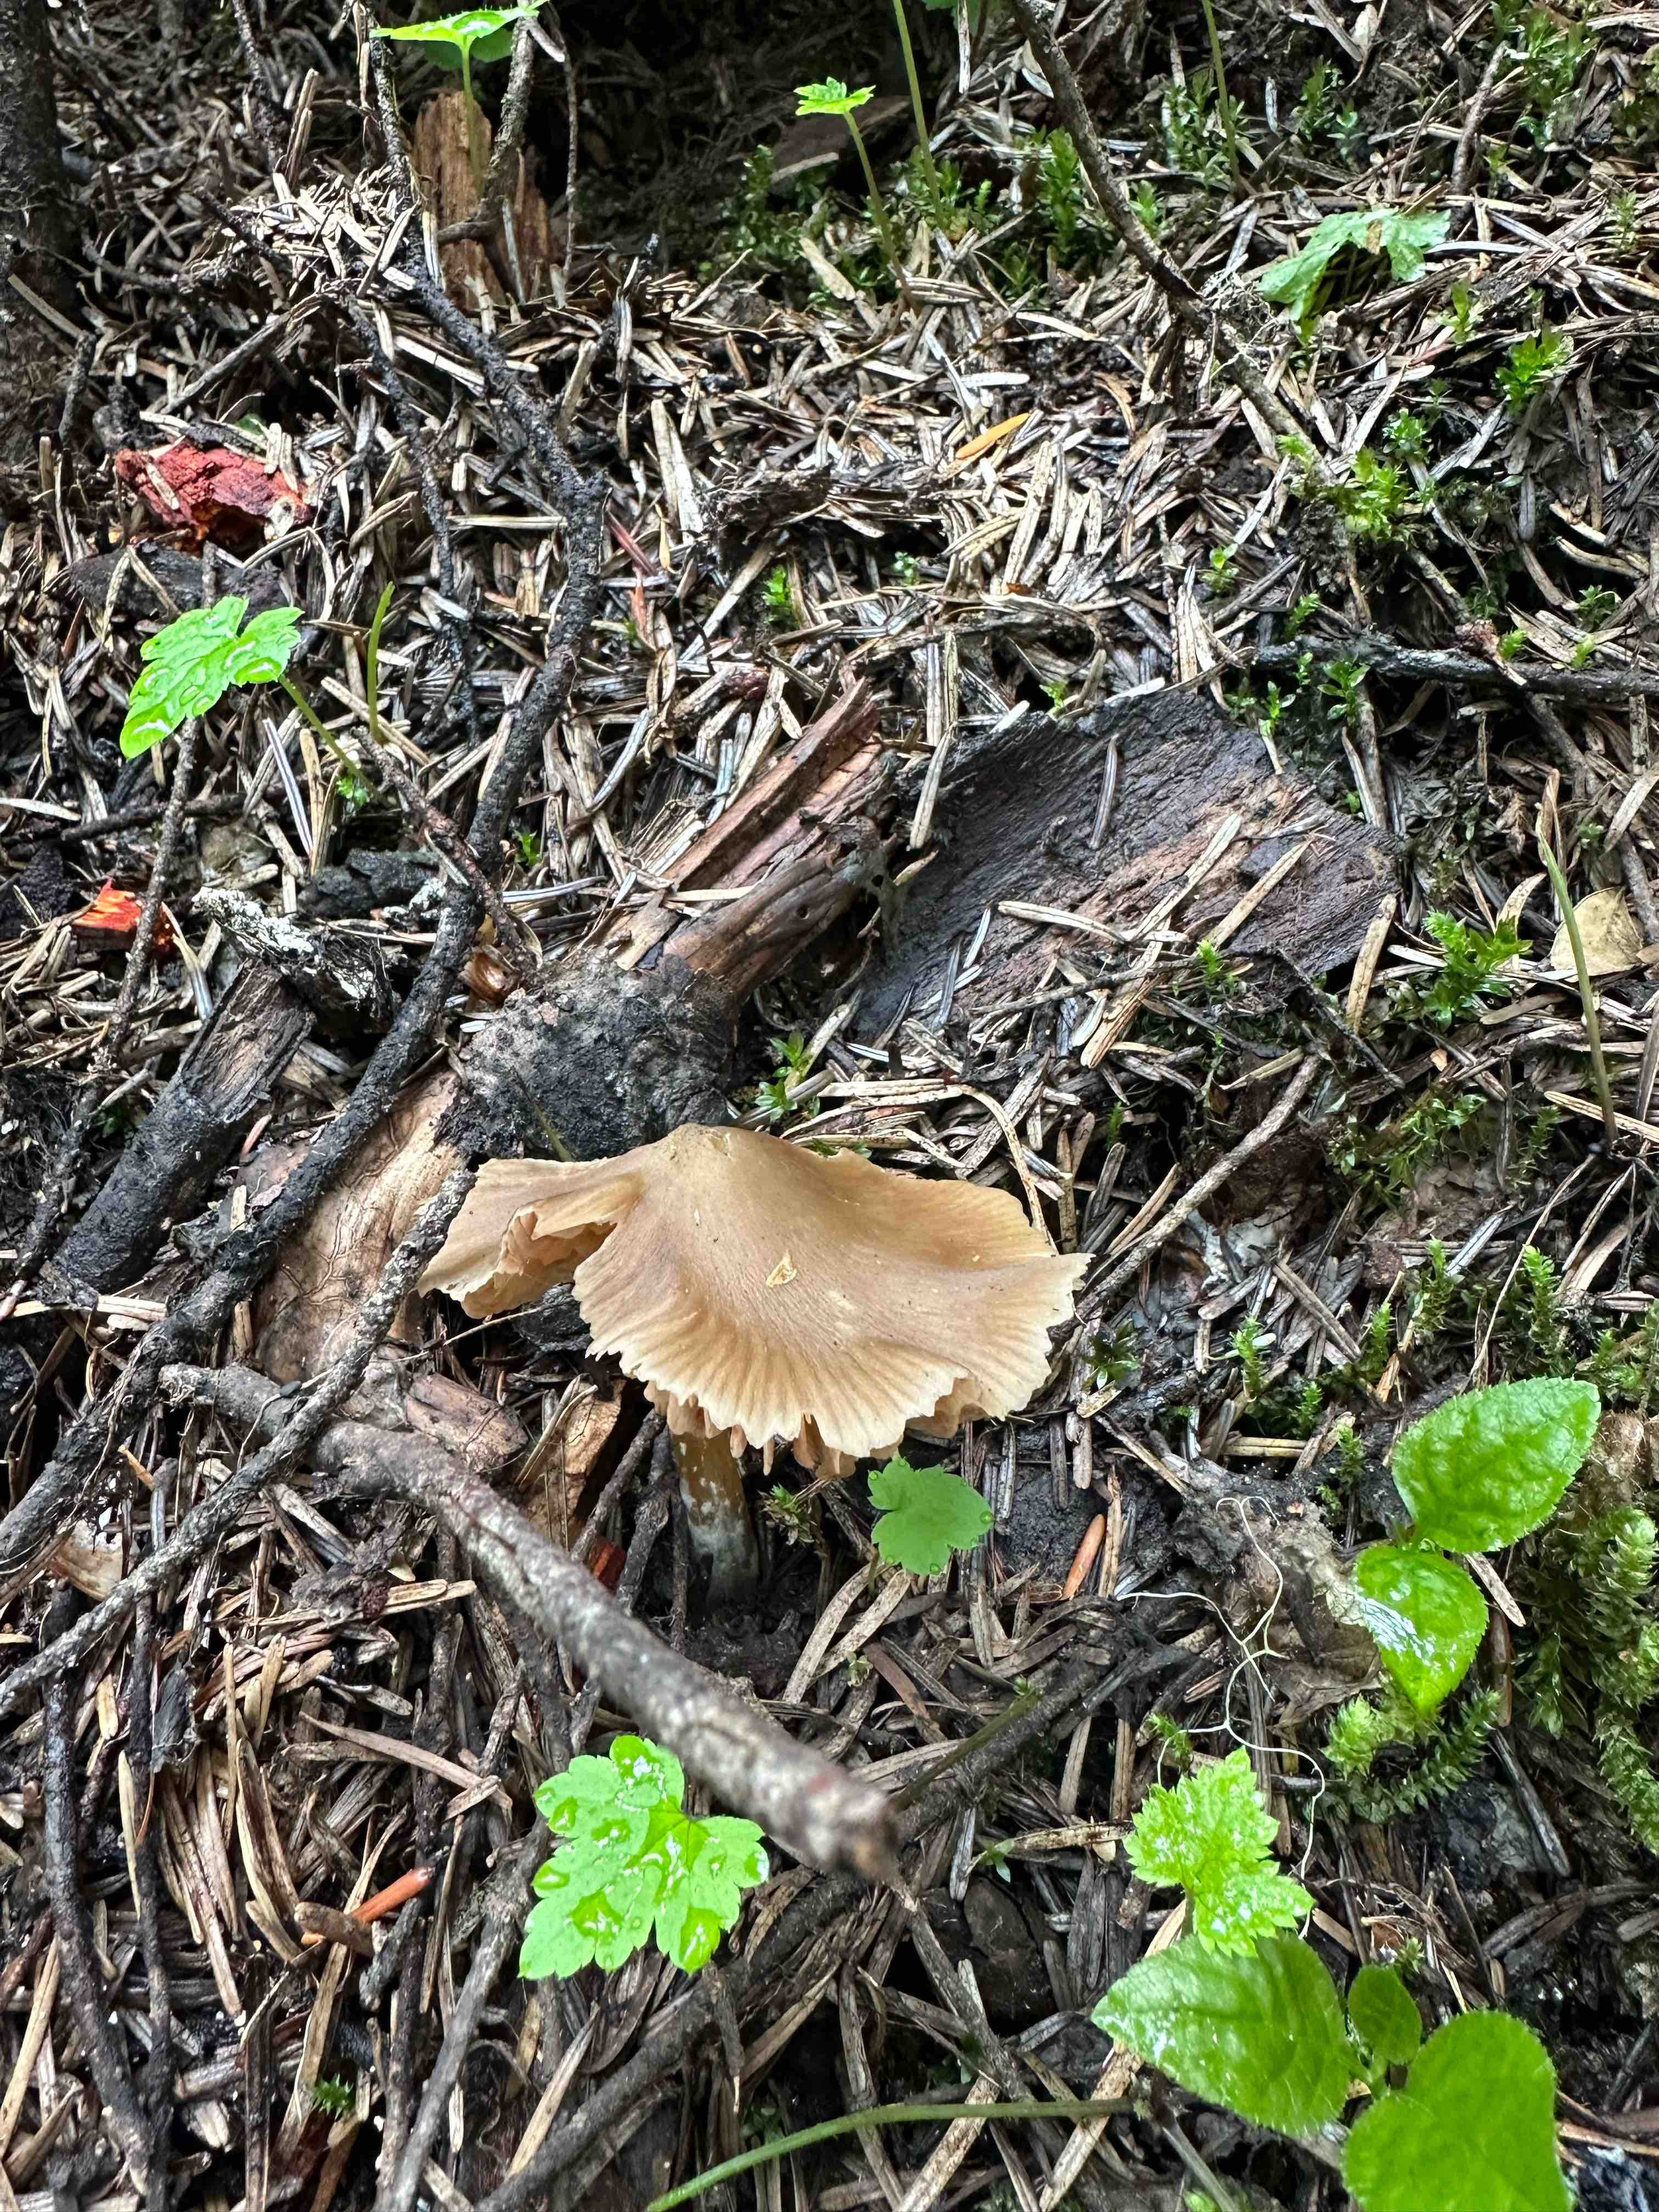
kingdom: Fungi
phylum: Basidiomycota
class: Agaricomycetes
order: Agaricales
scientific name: Agaricales
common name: champignonordenen
